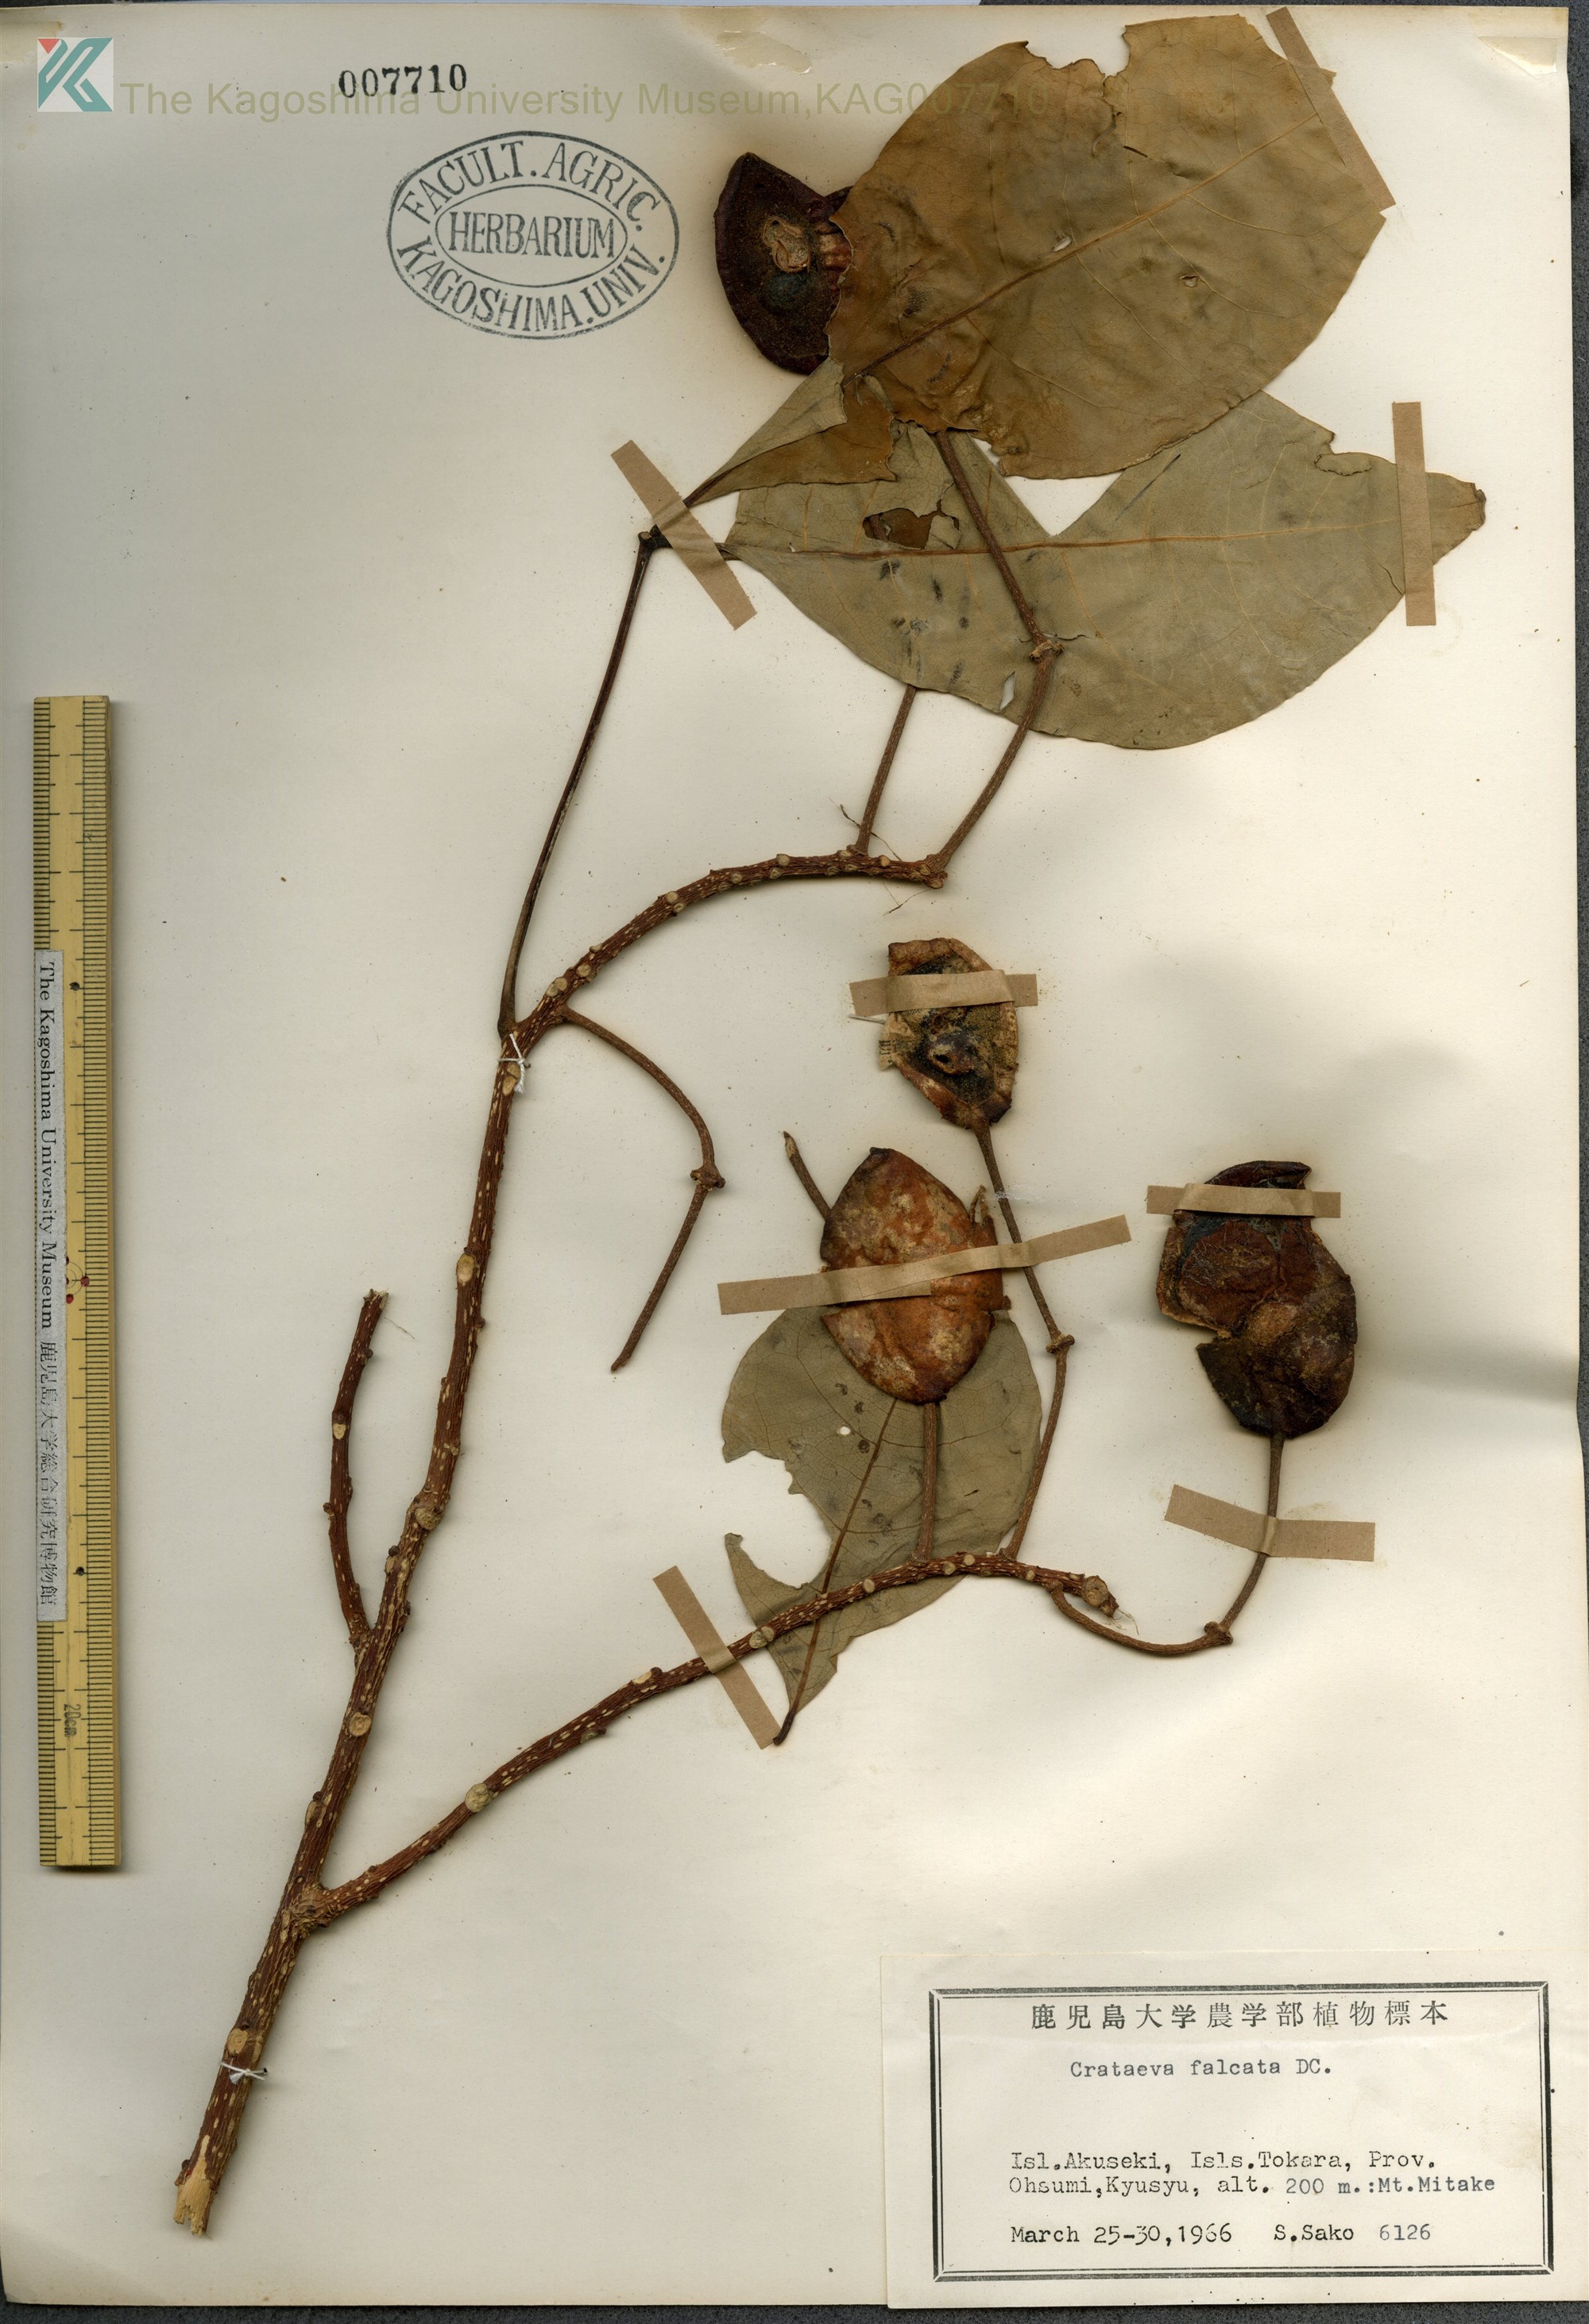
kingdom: Plantae
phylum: Tracheophyta
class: Magnoliopsida
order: Brassicales
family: Capparaceae
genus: Crateva
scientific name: Crateva formosensis
